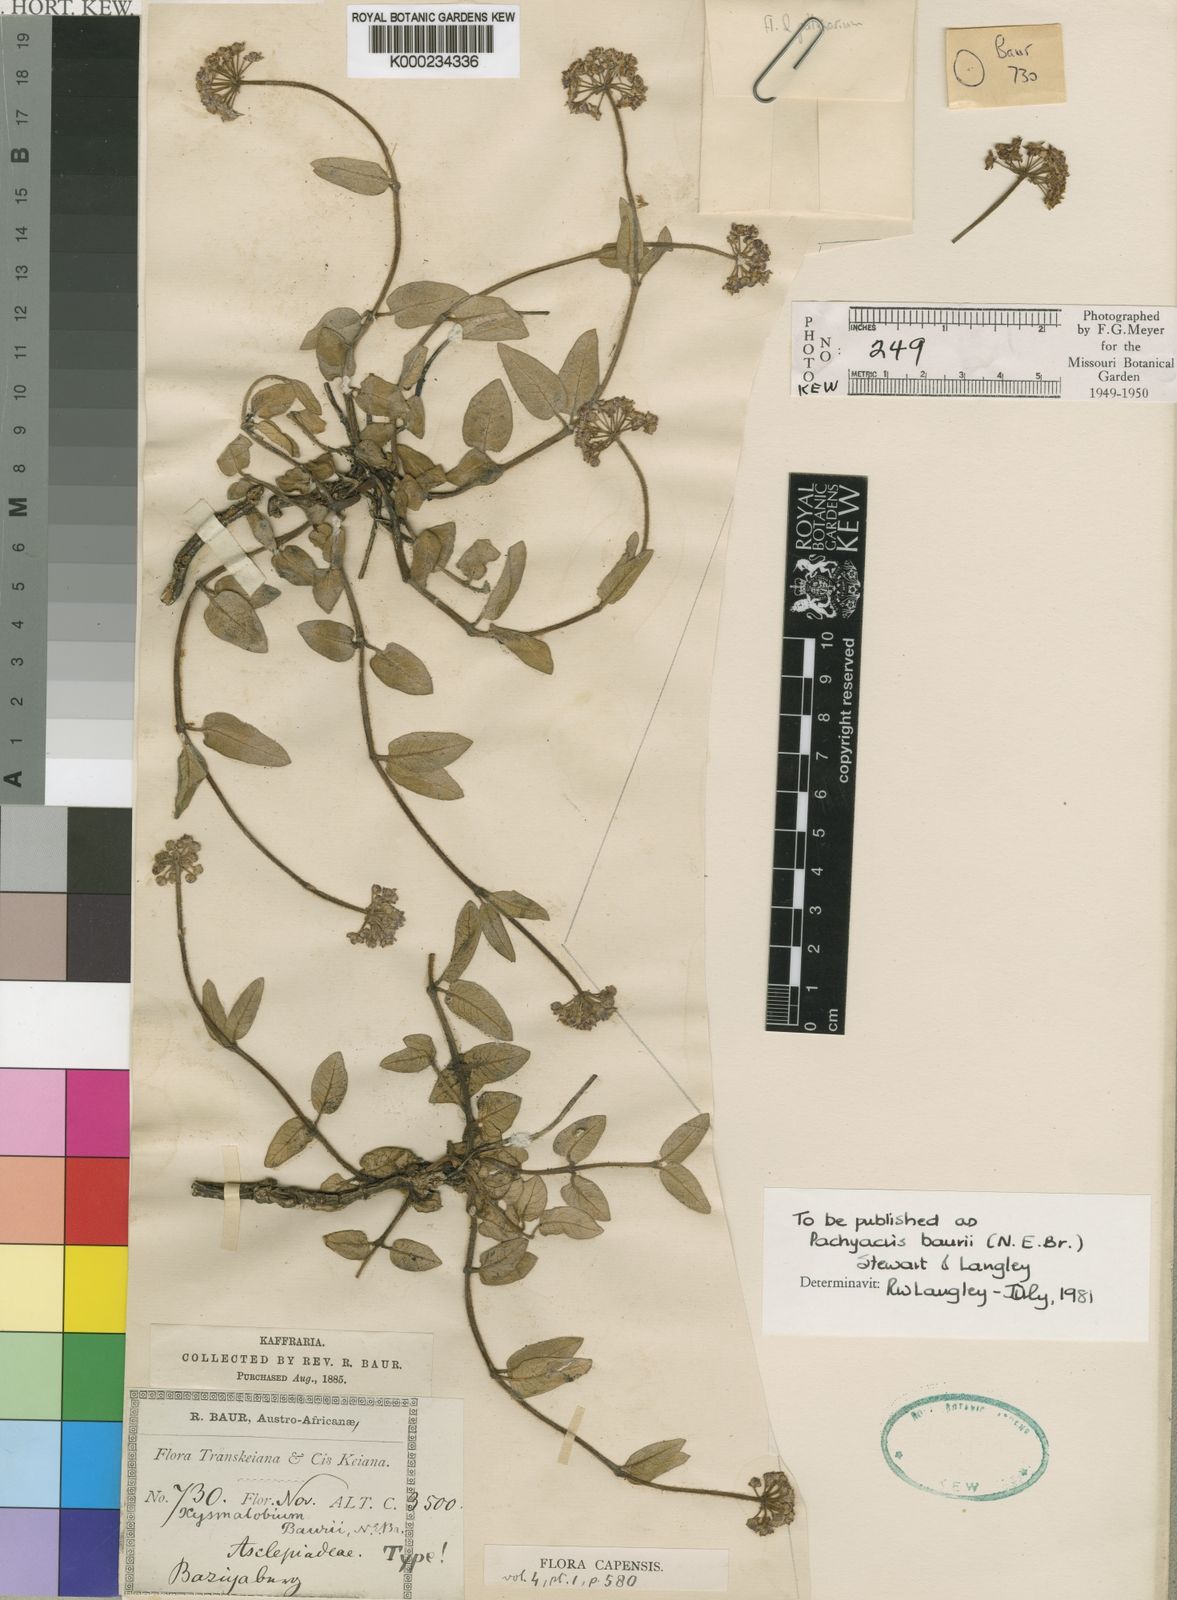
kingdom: Plantae
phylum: Tracheophyta
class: Magnoliopsida
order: Gentianales
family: Apocynaceae
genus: Xysmalobium
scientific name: Xysmalobium baurii
